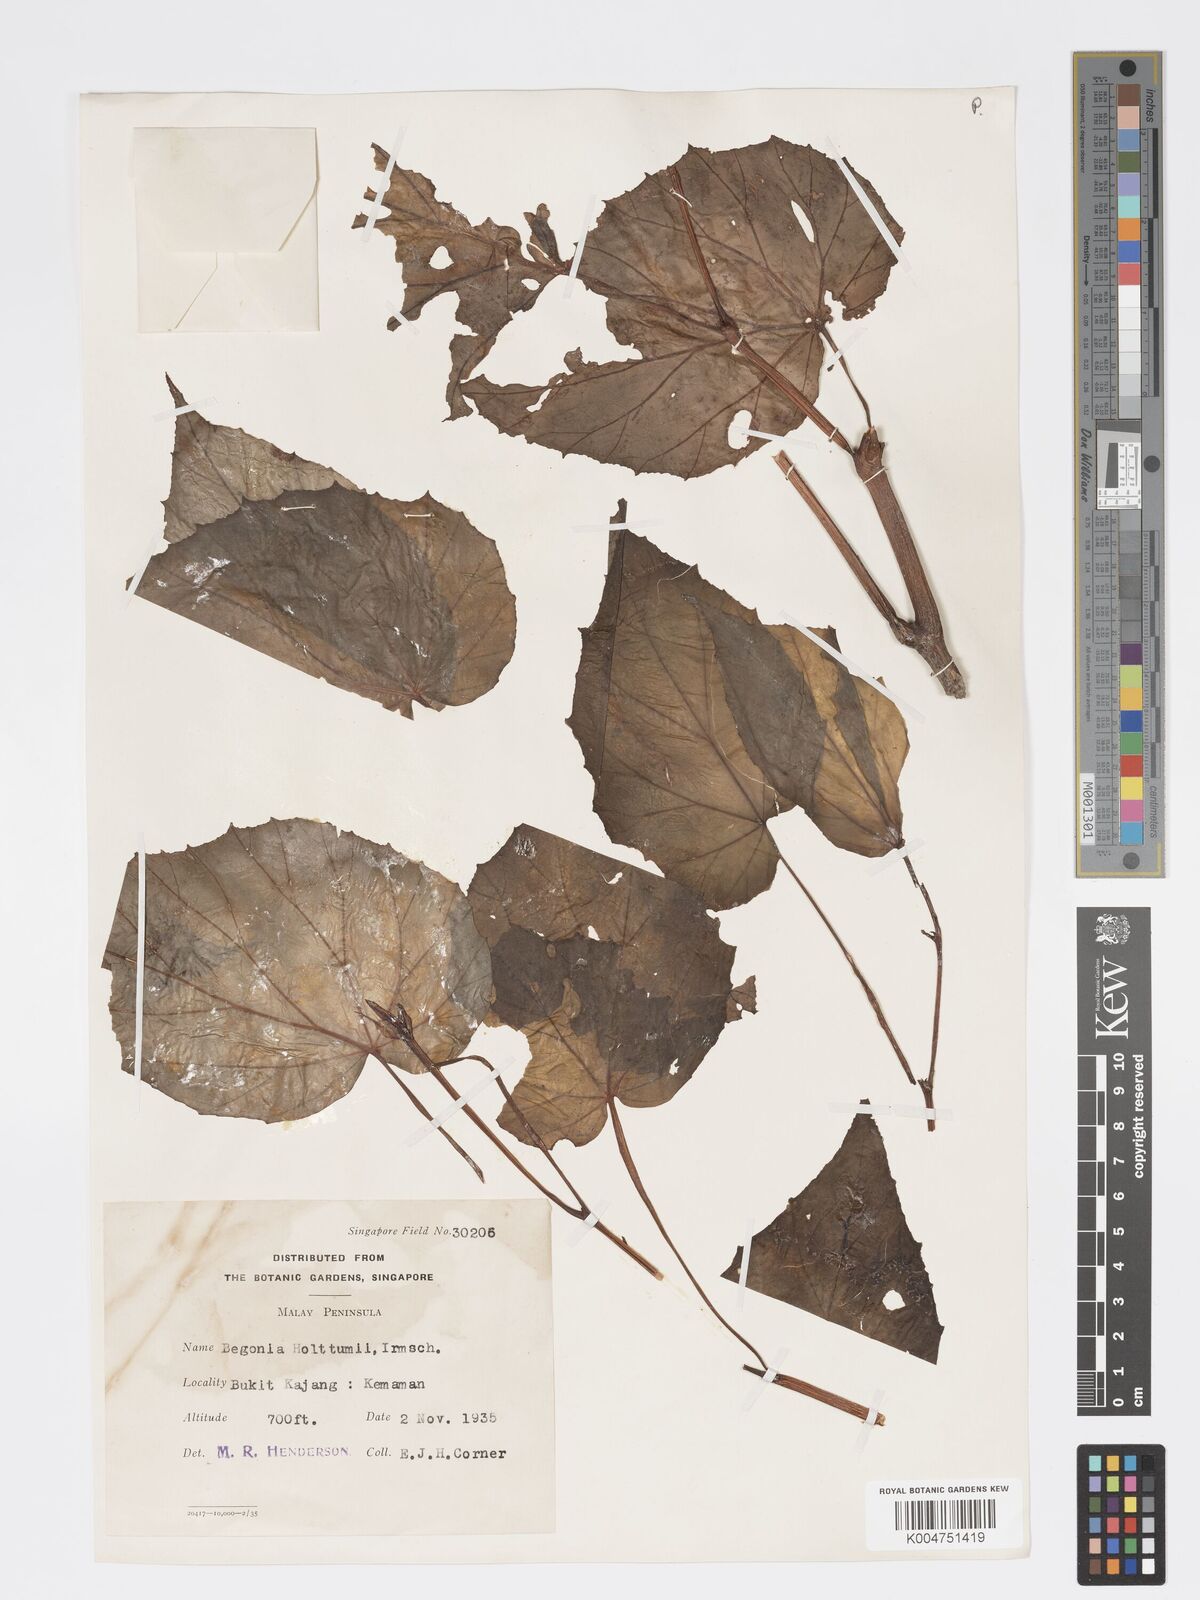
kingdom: Plantae
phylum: Tracheophyta
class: Magnoliopsida
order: Cucurbitales
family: Begoniaceae
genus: Begonia
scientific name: Begonia holttumii
